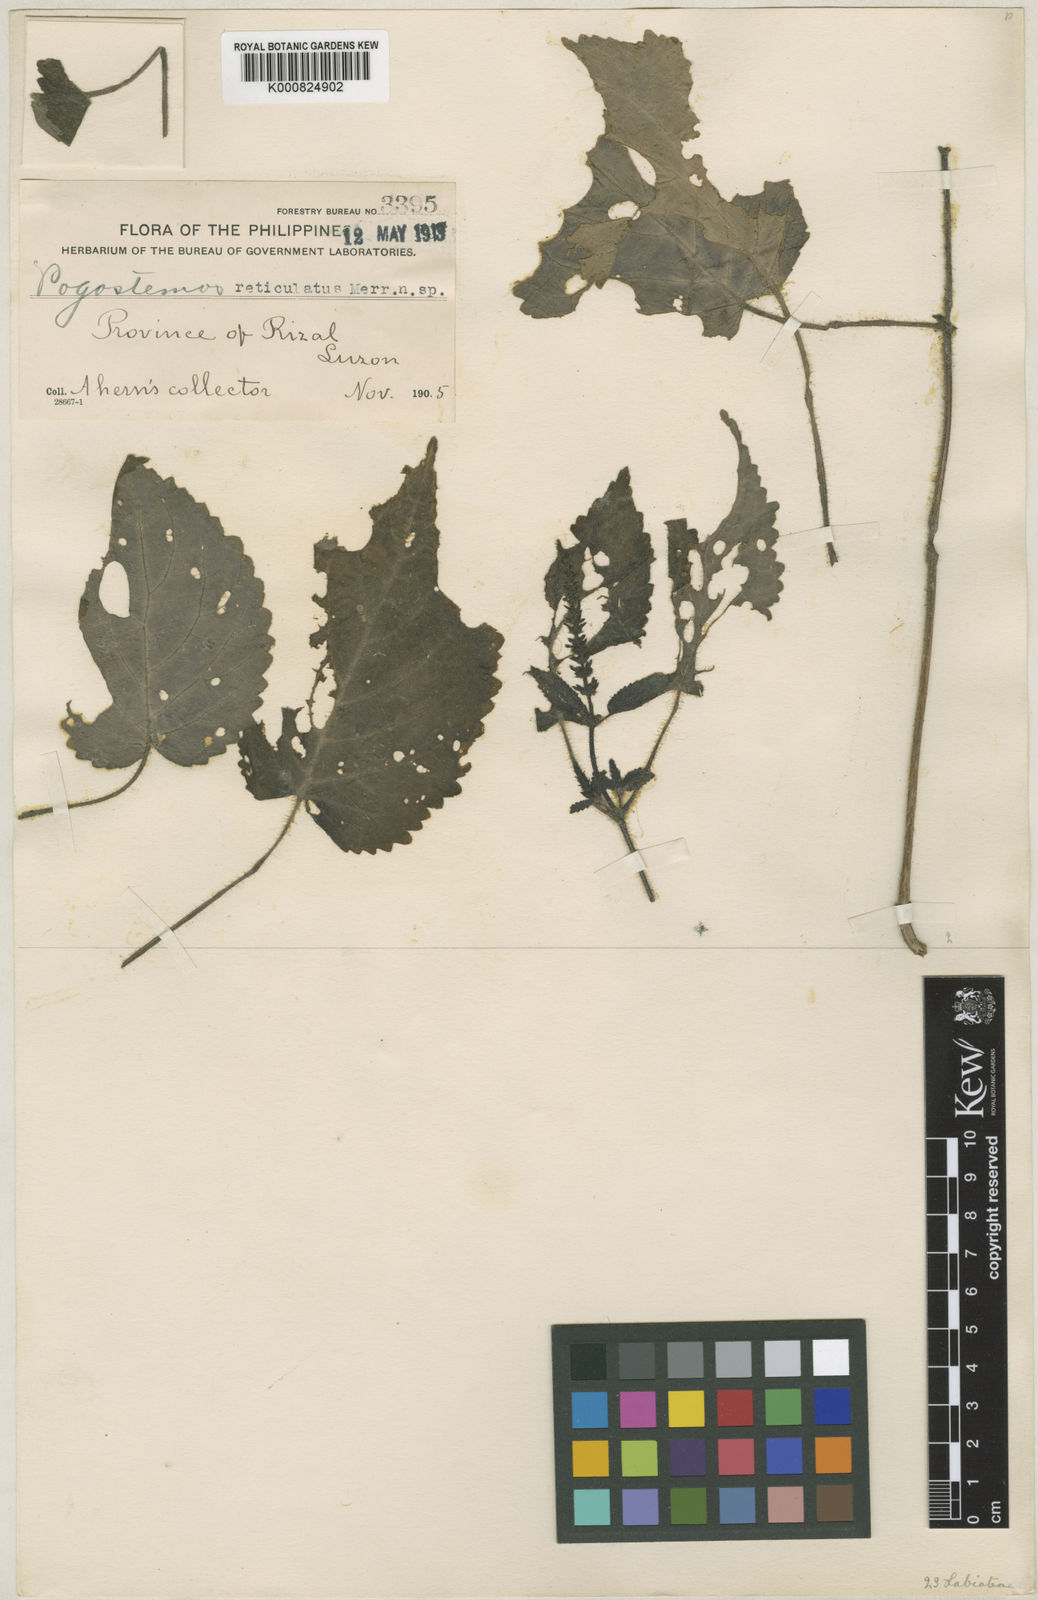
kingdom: Plantae
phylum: Tracheophyta
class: Magnoliopsida
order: Lamiales
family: Lamiaceae
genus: Pogostemon
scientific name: Pogostemon reticulatus
